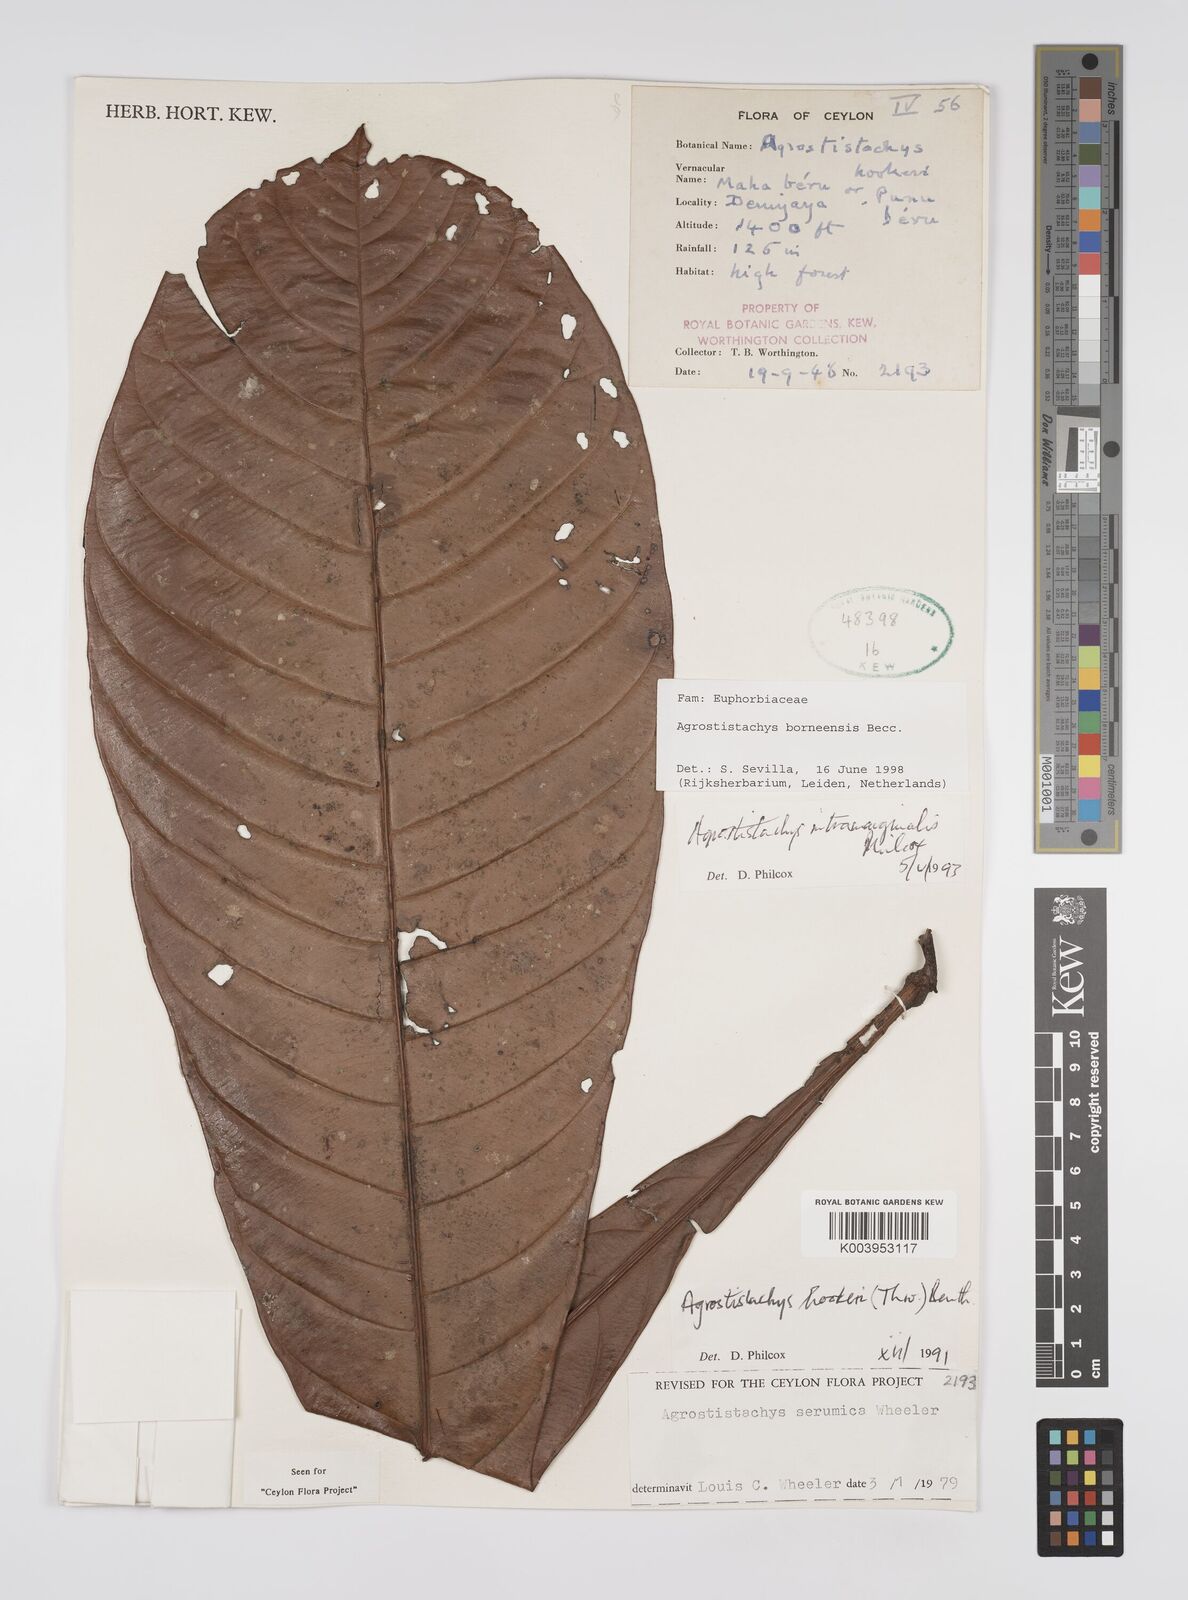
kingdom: Plantae
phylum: Tracheophyta
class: Magnoliopsida
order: Malpighiales
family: Euphorbiaceae
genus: Agrostistachys
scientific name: Agrostistachys borneensis
